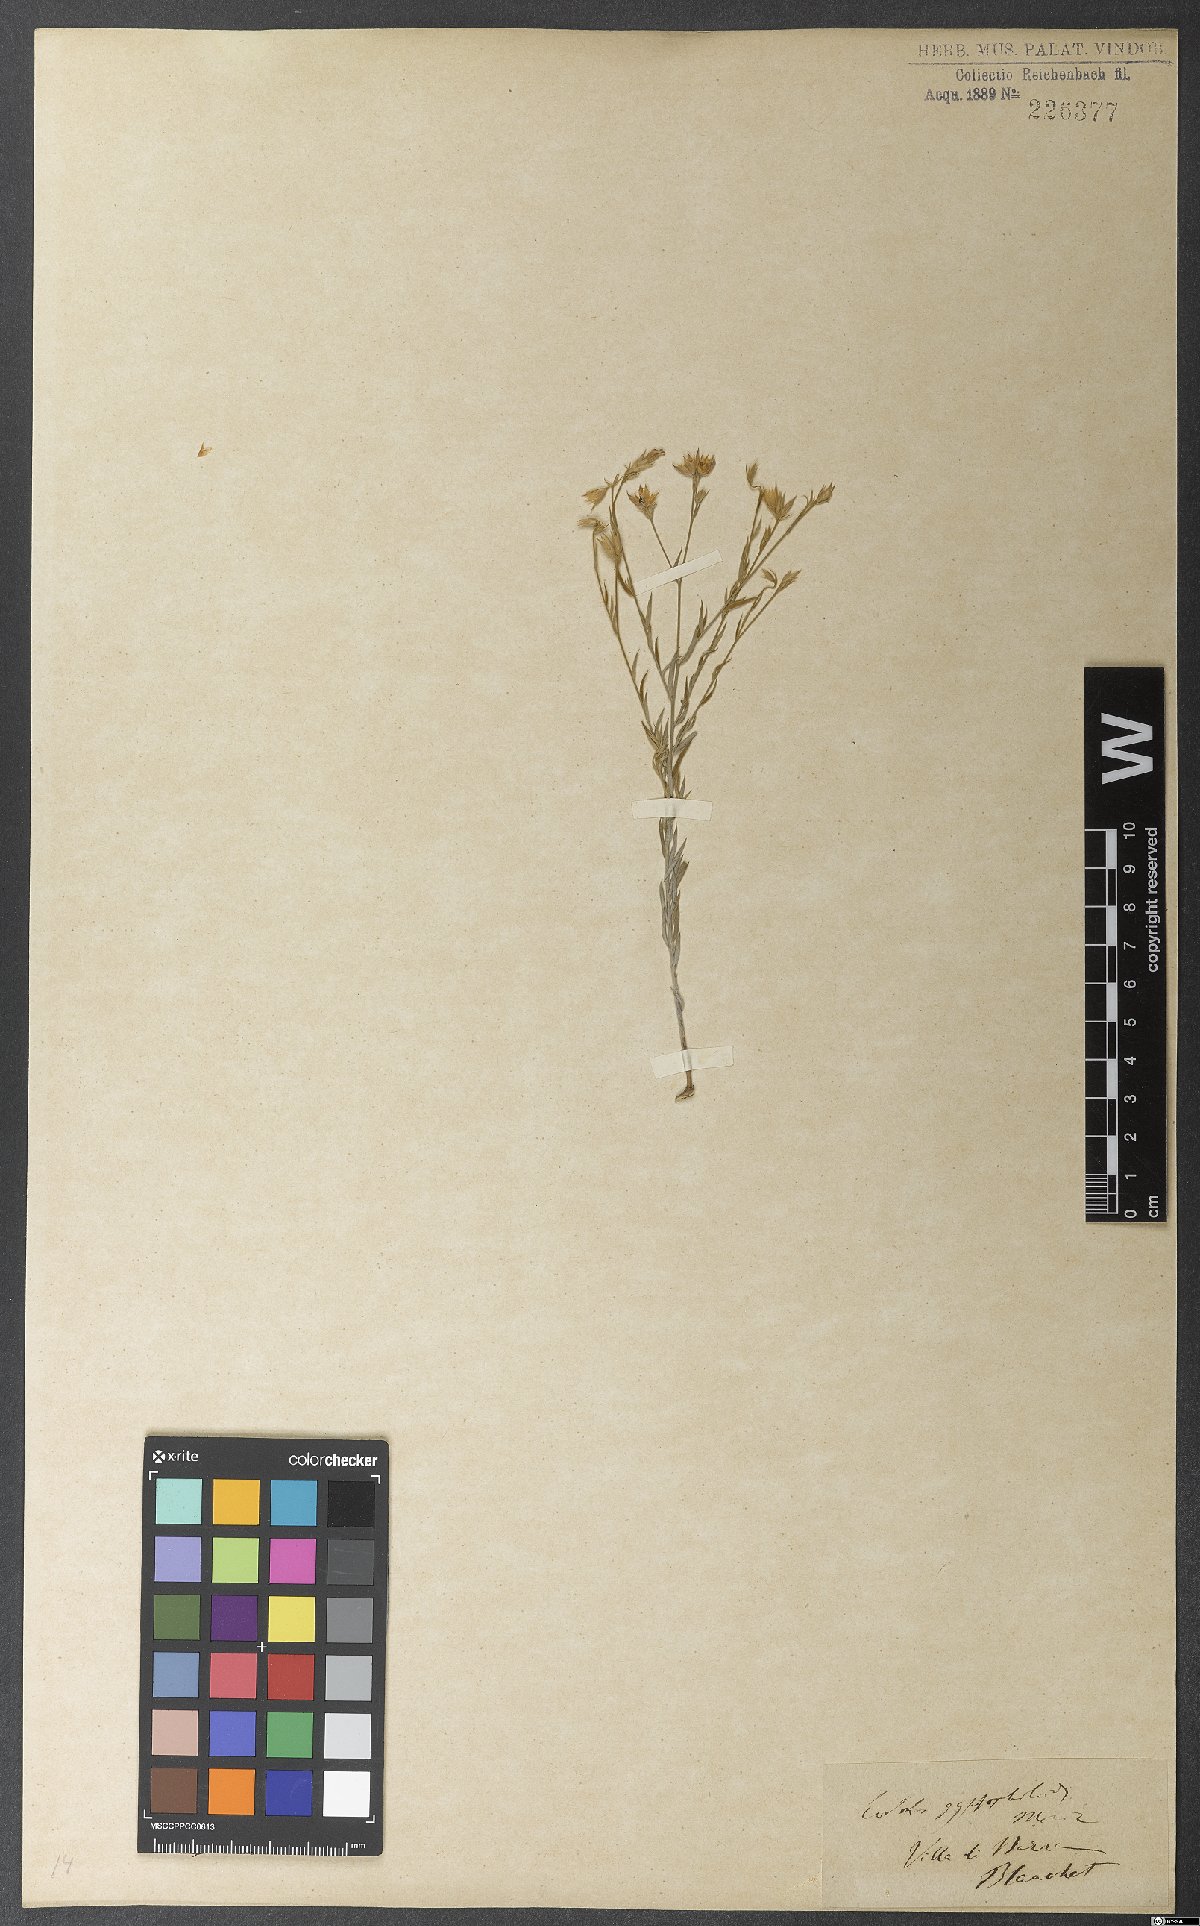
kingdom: Plantae
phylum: Tracheophyta
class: Magnoliopsida
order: Solanales
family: Convolvulaceae
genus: Evolvulus
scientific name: Evolvulus gypsophiloides
